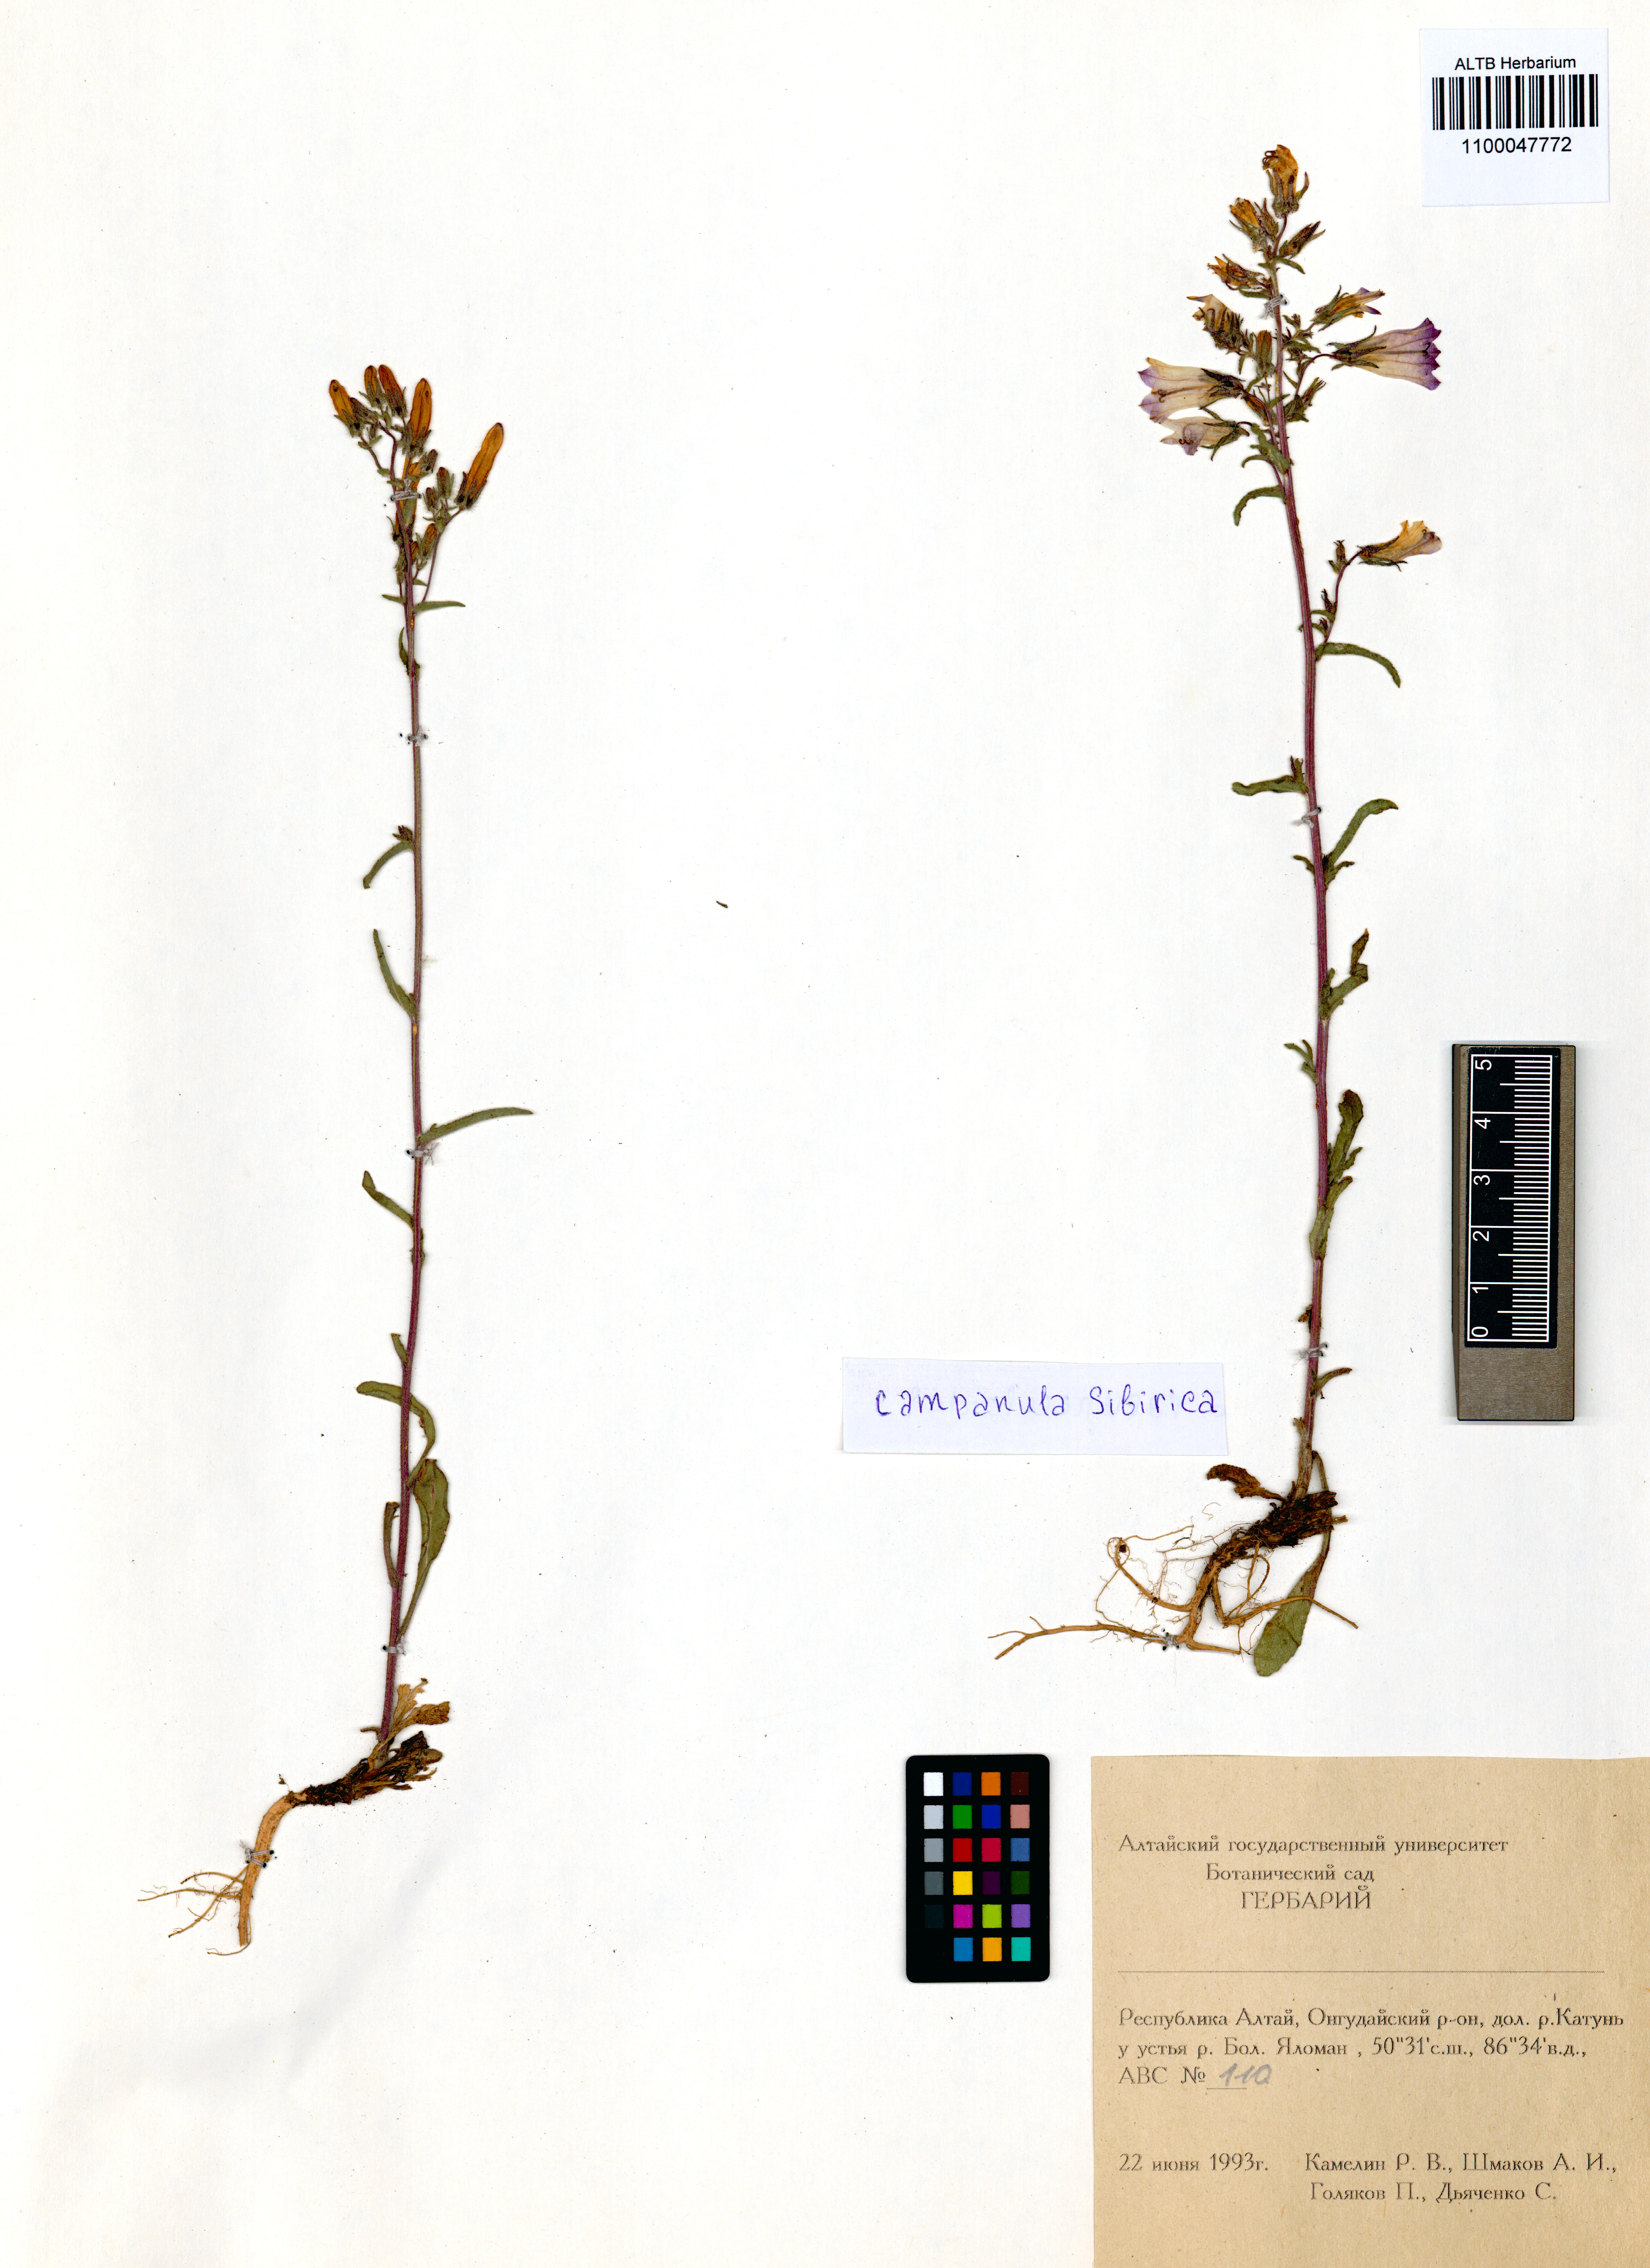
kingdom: Plantae
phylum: Tracheophyta
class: Magnoliopsida
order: Asterales
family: Campanulaceae
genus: Campanula
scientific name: Campanula sibirica
